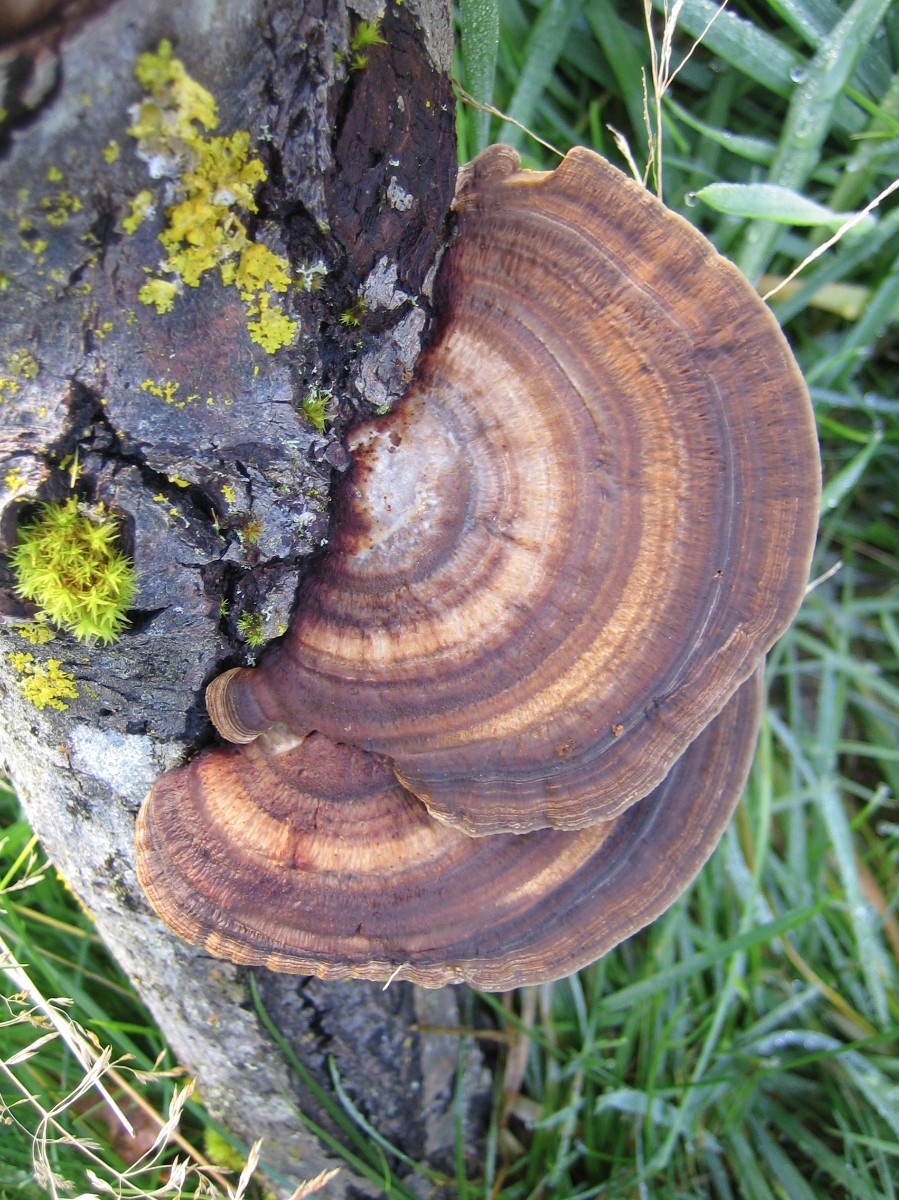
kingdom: Fungi
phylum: Basidiomycota
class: Agaricomycetes
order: Polyporales
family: Polyporaceae
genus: Daedaleopsis
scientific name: Daedaleopsis confragosa
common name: rødmende læderporesvamp
